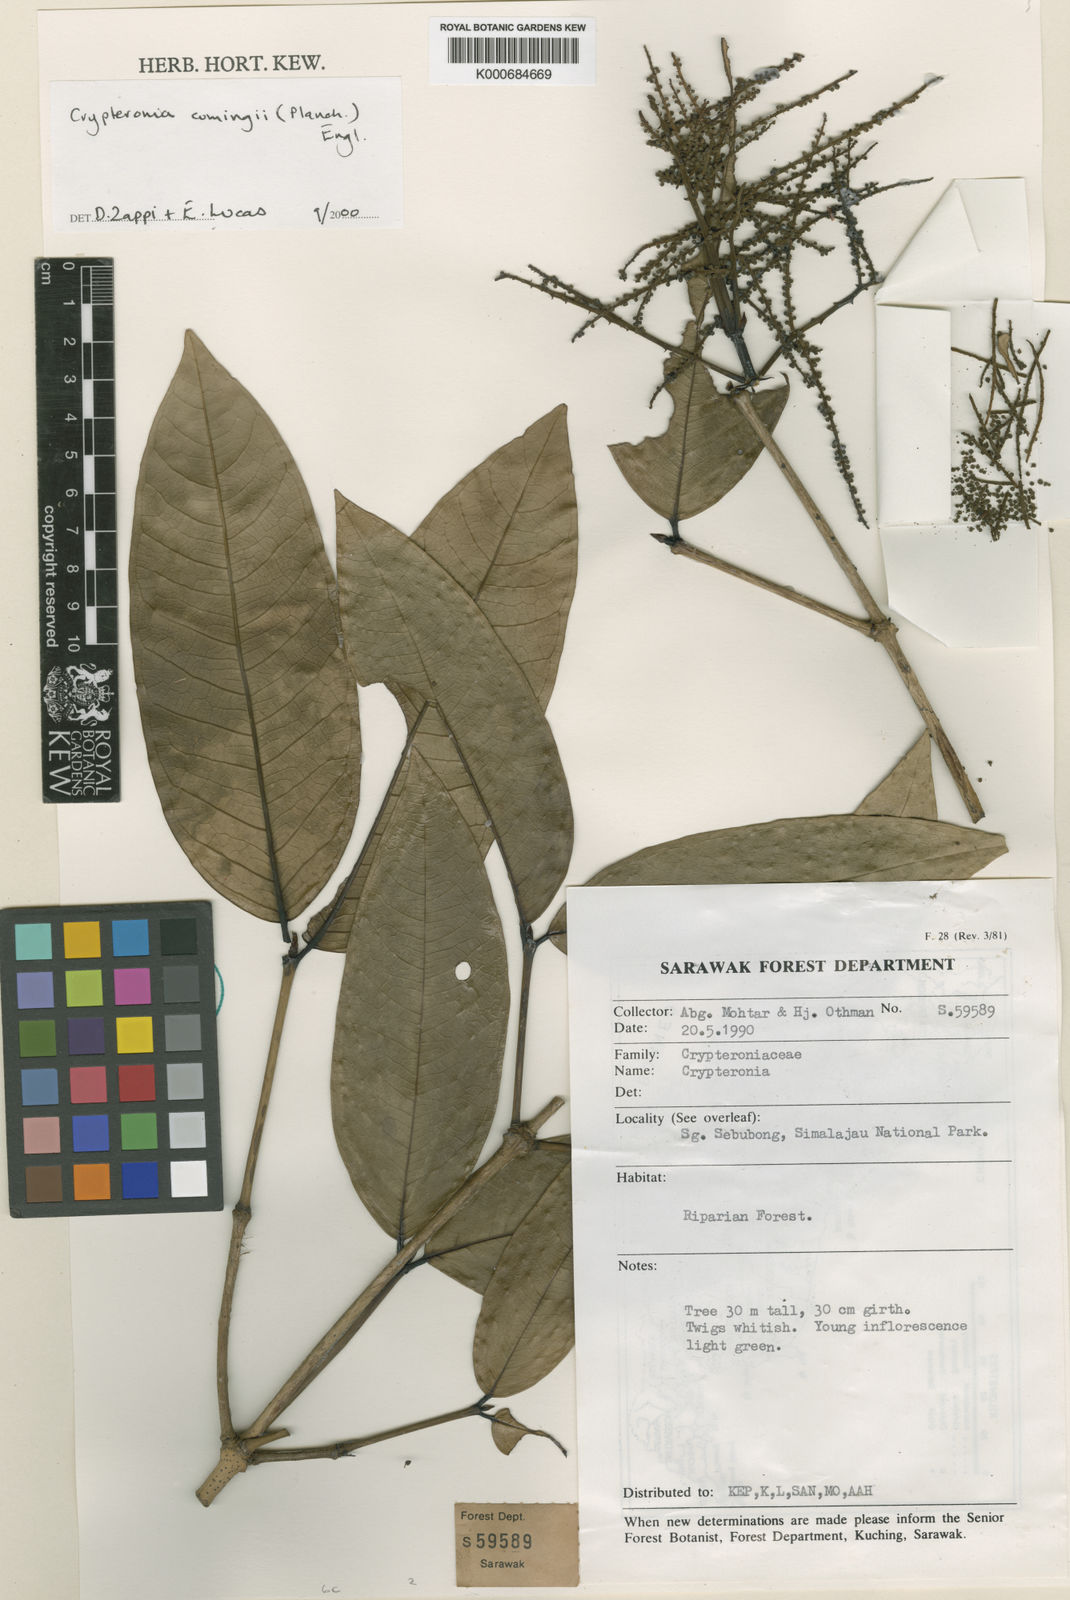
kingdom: Plantae
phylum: Tracheophyta
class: Magnoliopsida
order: Myrtales
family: Crypteroniaceae
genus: Crypteronia
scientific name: Crypteronia cumingii
